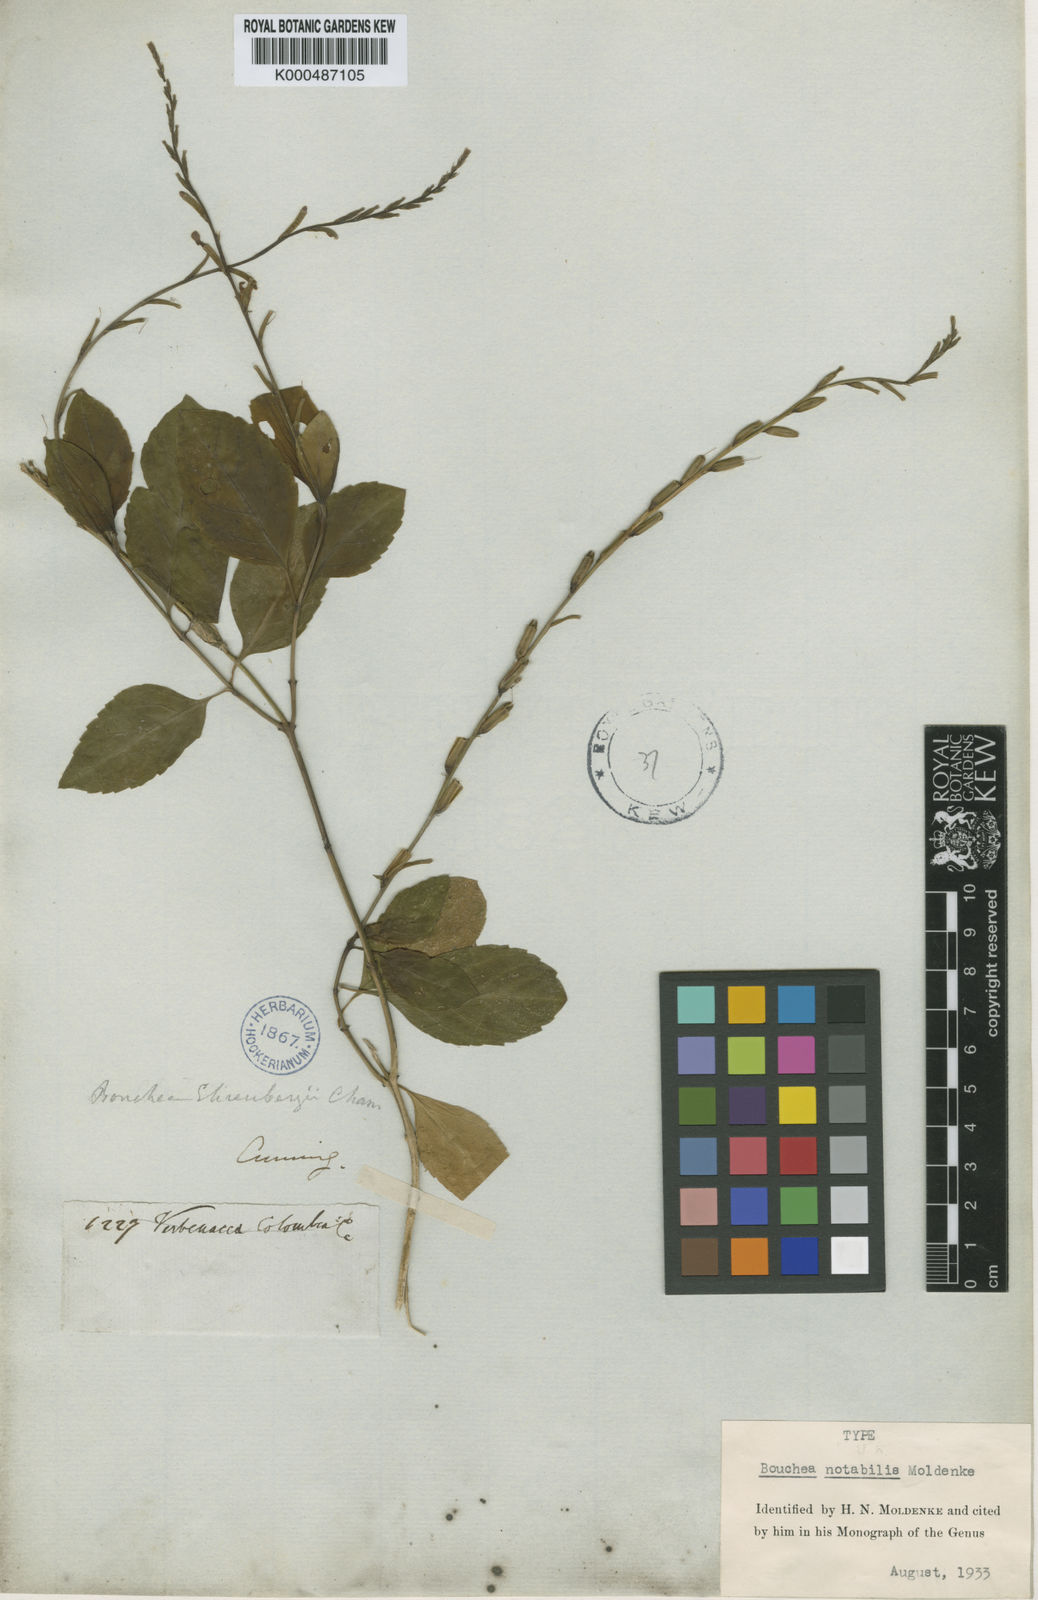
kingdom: Plantae
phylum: Tracheophyta
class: Magnoliopsida
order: Lamiales
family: Verbenaceae
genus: Bouchea
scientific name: Bouchea notabilis
